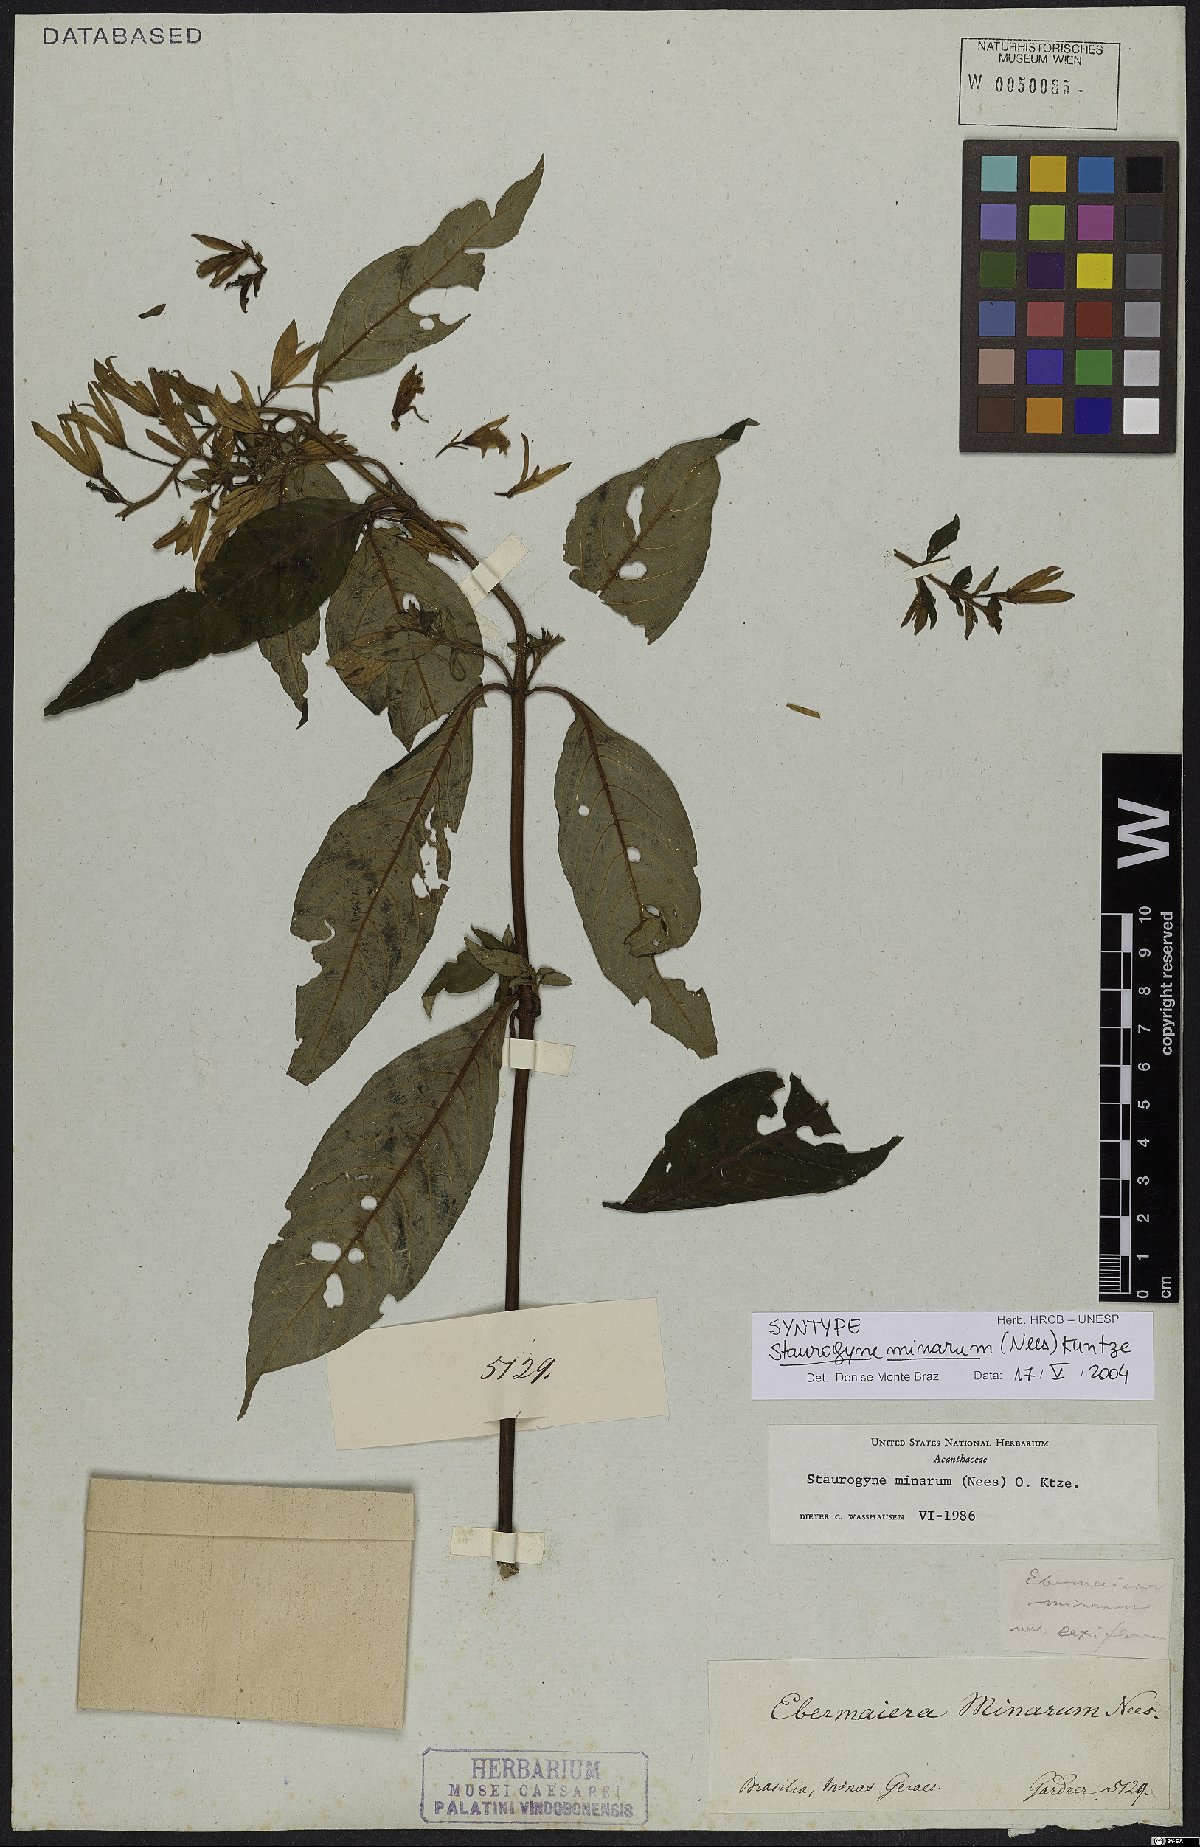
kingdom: Plantae
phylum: Tracheophyta
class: Magnoliopsida
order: Lamiales
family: Acanthaceae
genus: Staurogyne
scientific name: Staurogyne minarum
